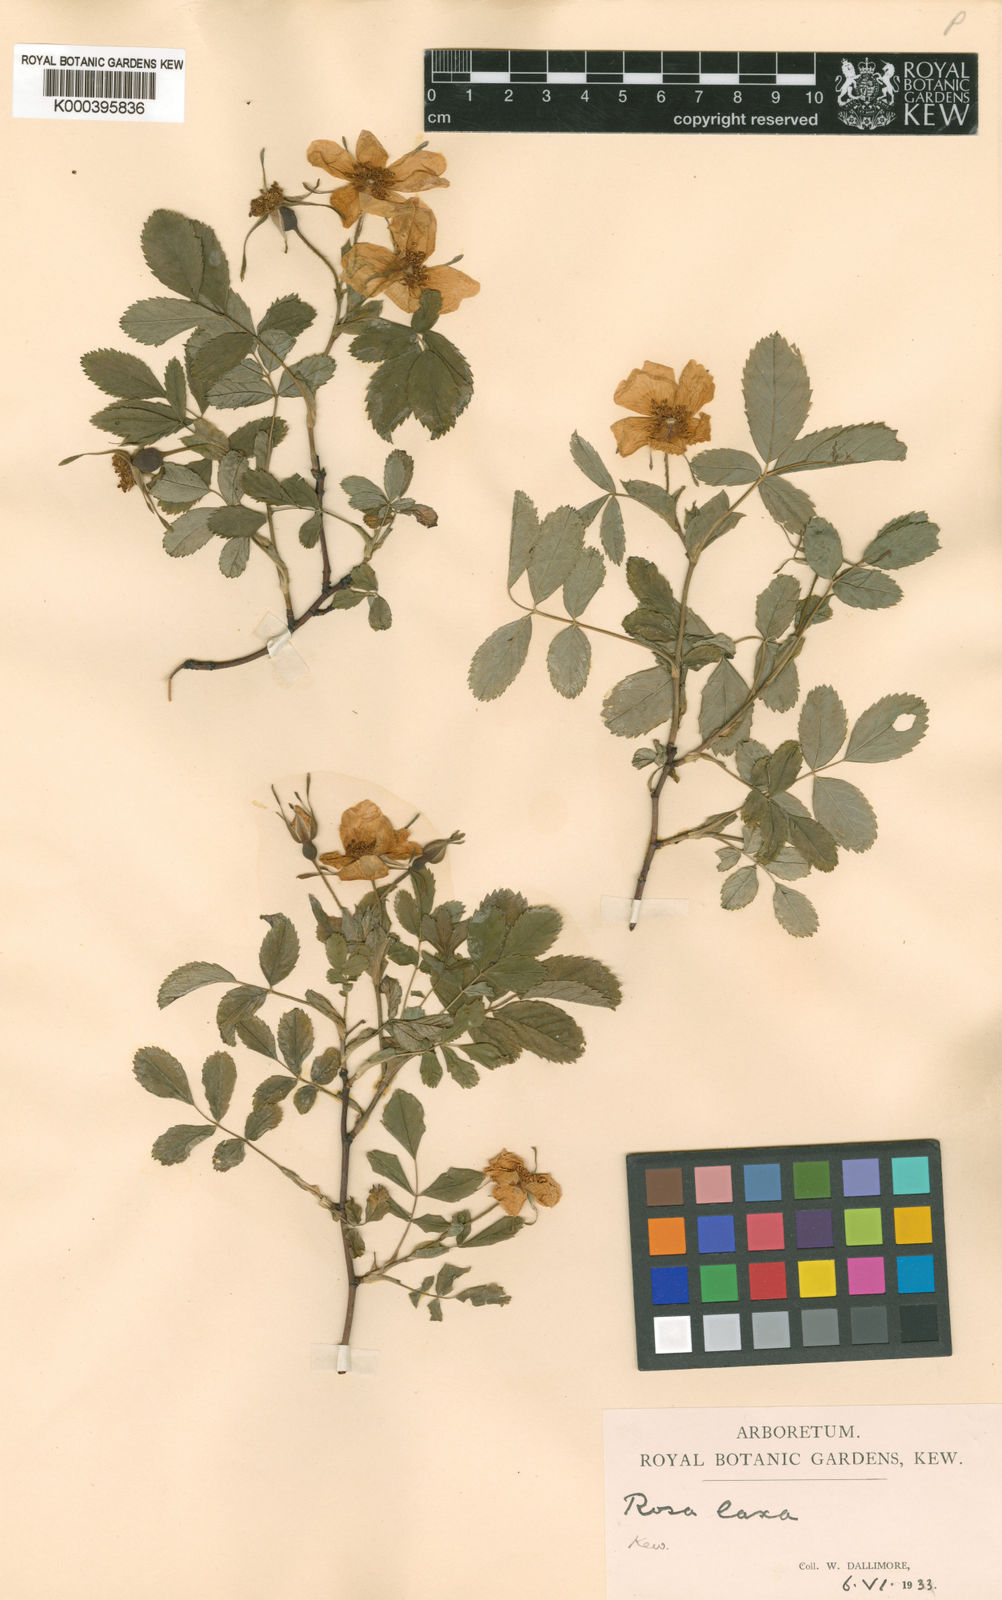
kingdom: Plantae
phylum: Tracheophyta
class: Magnoliopsida
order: Rosales
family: Rosaceae
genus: Rosa
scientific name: Rosa laxa
